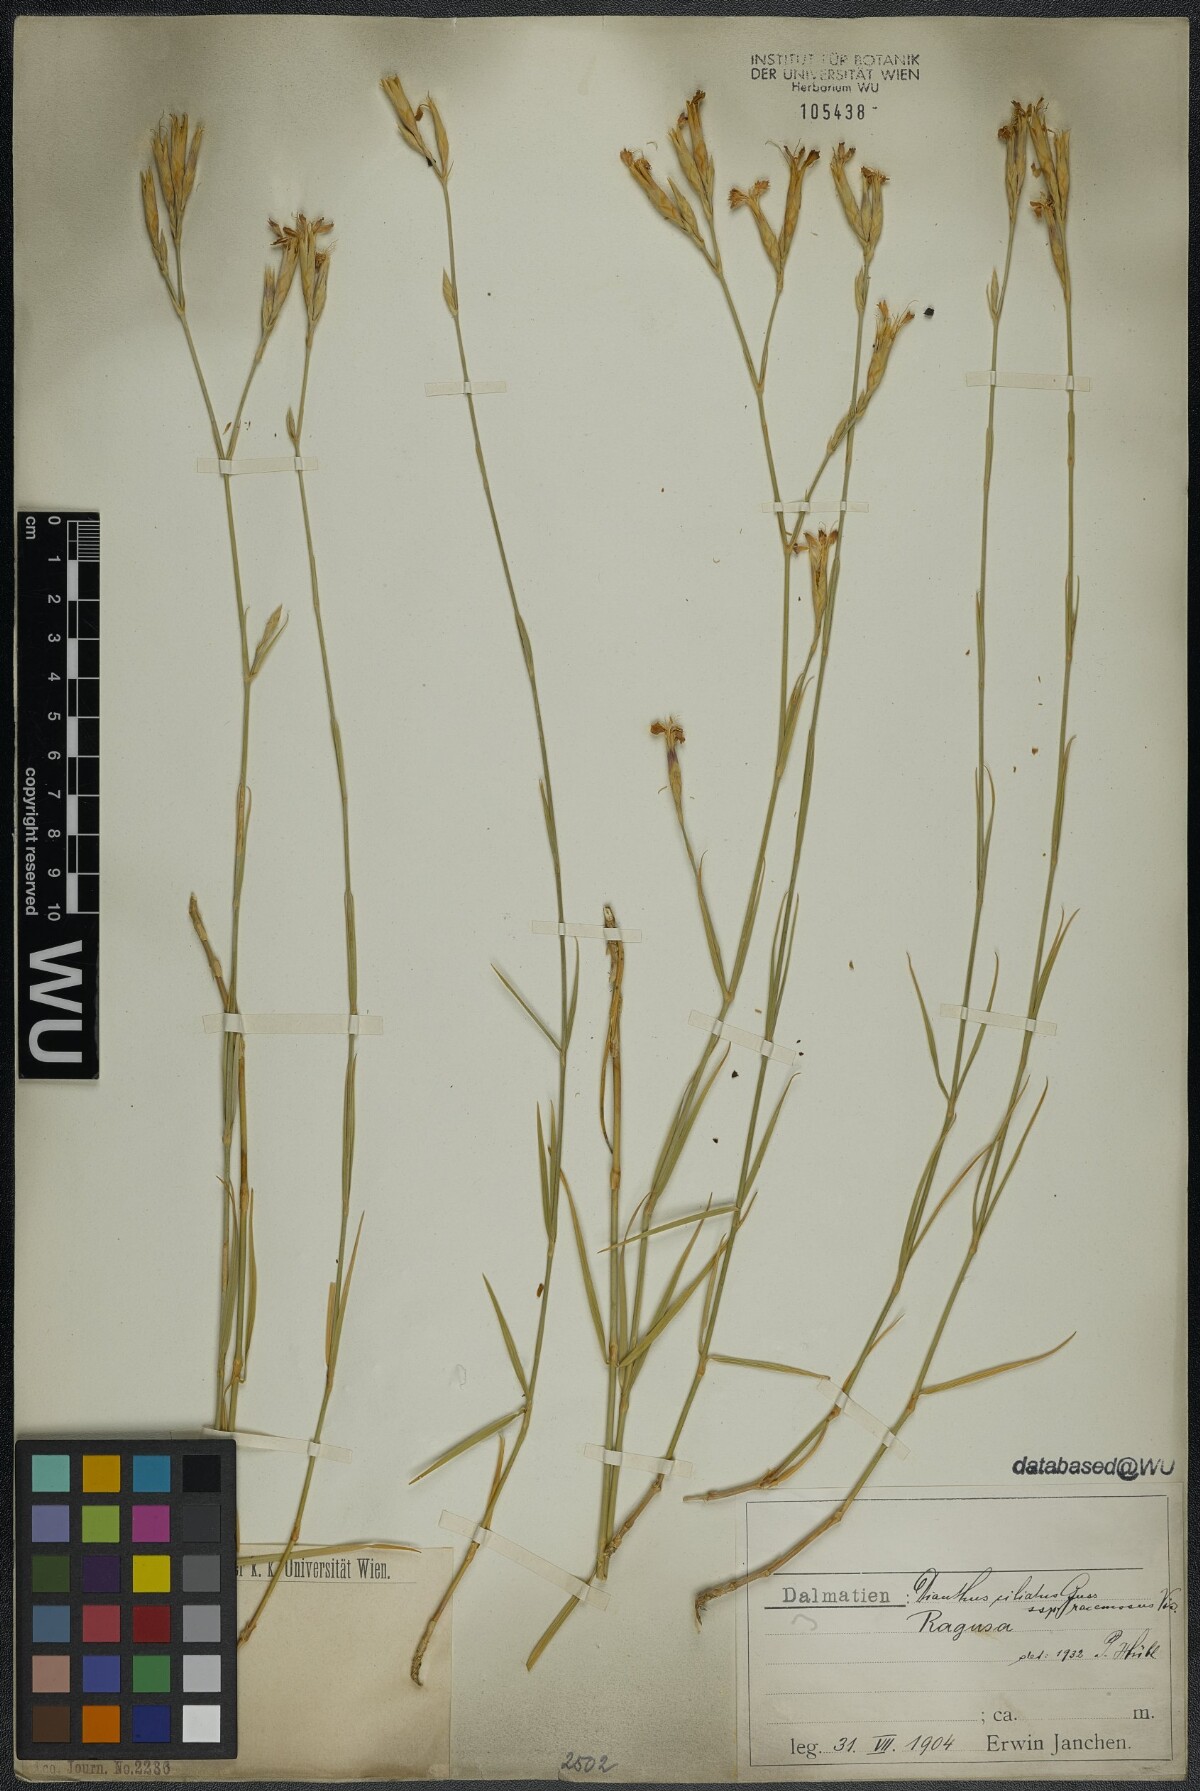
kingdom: Plantae
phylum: Tracheophyta
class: Magnoliopsida
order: Caryophyllales
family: Caryophyllaceae
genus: Dianthus
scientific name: Dianthus ciliatus
